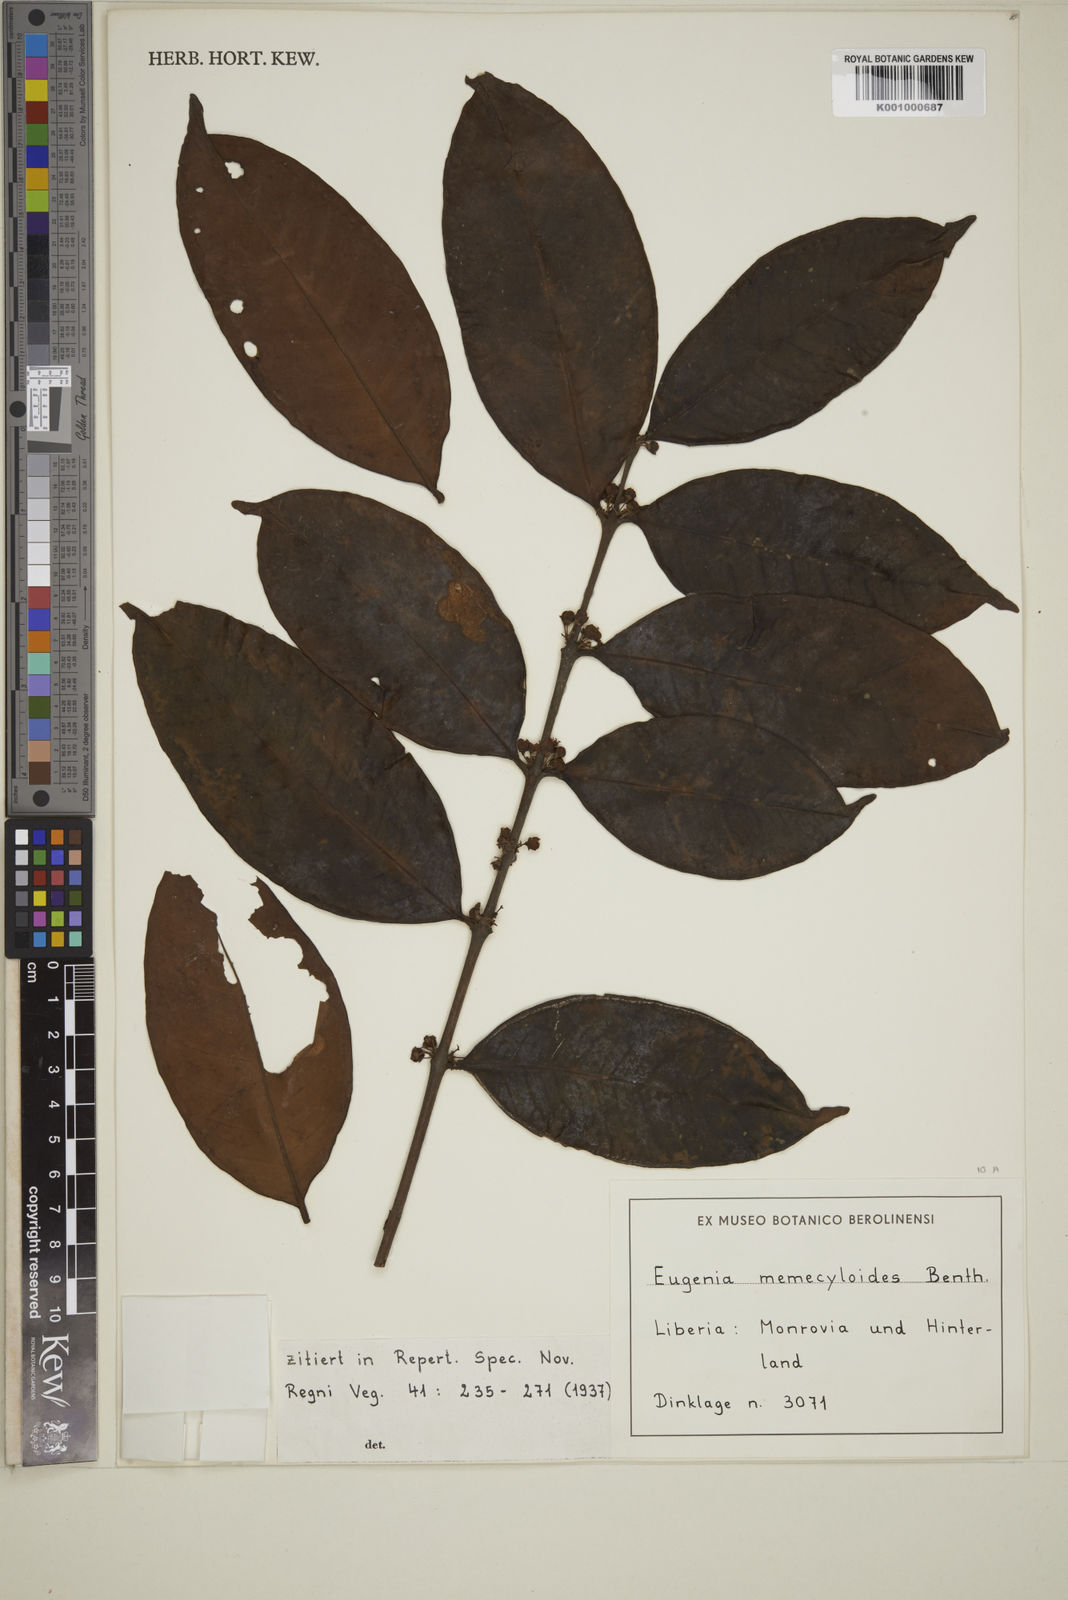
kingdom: Plantae
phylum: Tracheophyta
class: Magnoliopsida
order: Myrtales
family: Myrtaceae
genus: Eugenia
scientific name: Eugenia memecyloides
